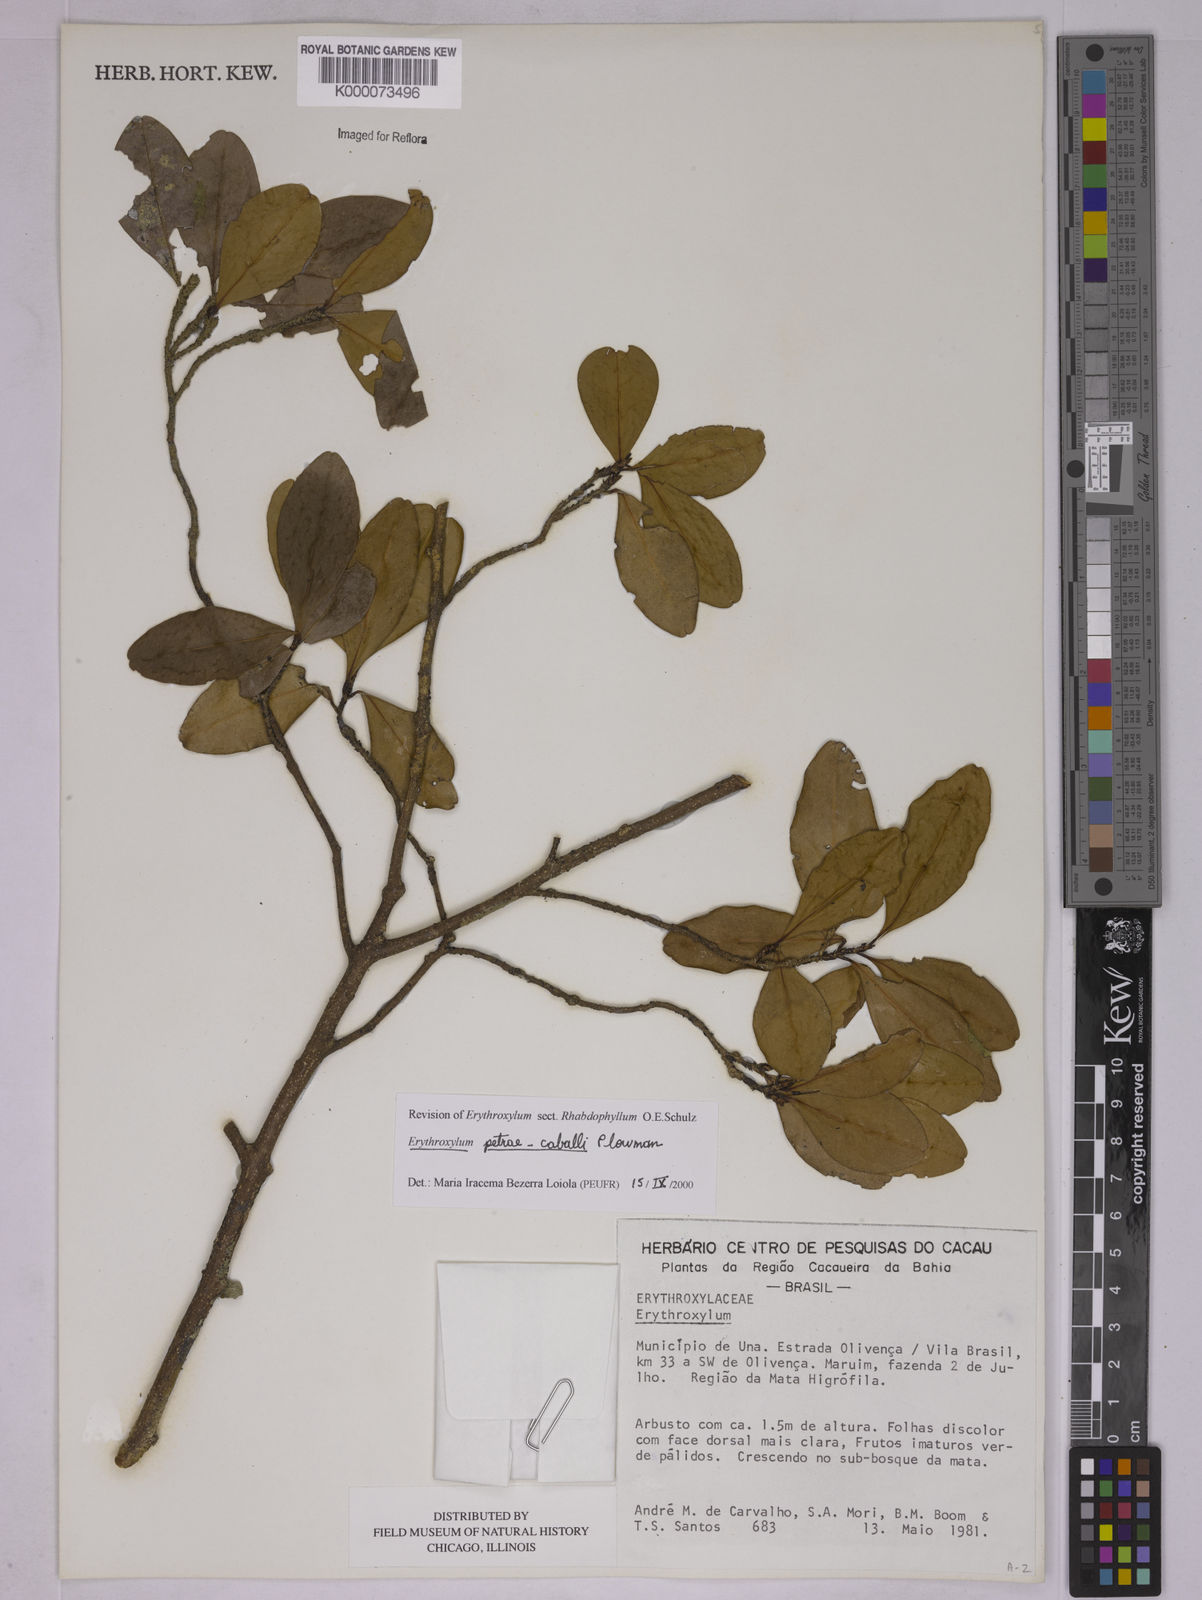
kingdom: Plantae
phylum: Tracheophyta
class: Magnoliopsida
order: Malpighiales
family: Erythroxylaceae
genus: Erythroxylum
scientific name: Erythroxylum petrae-caballi
